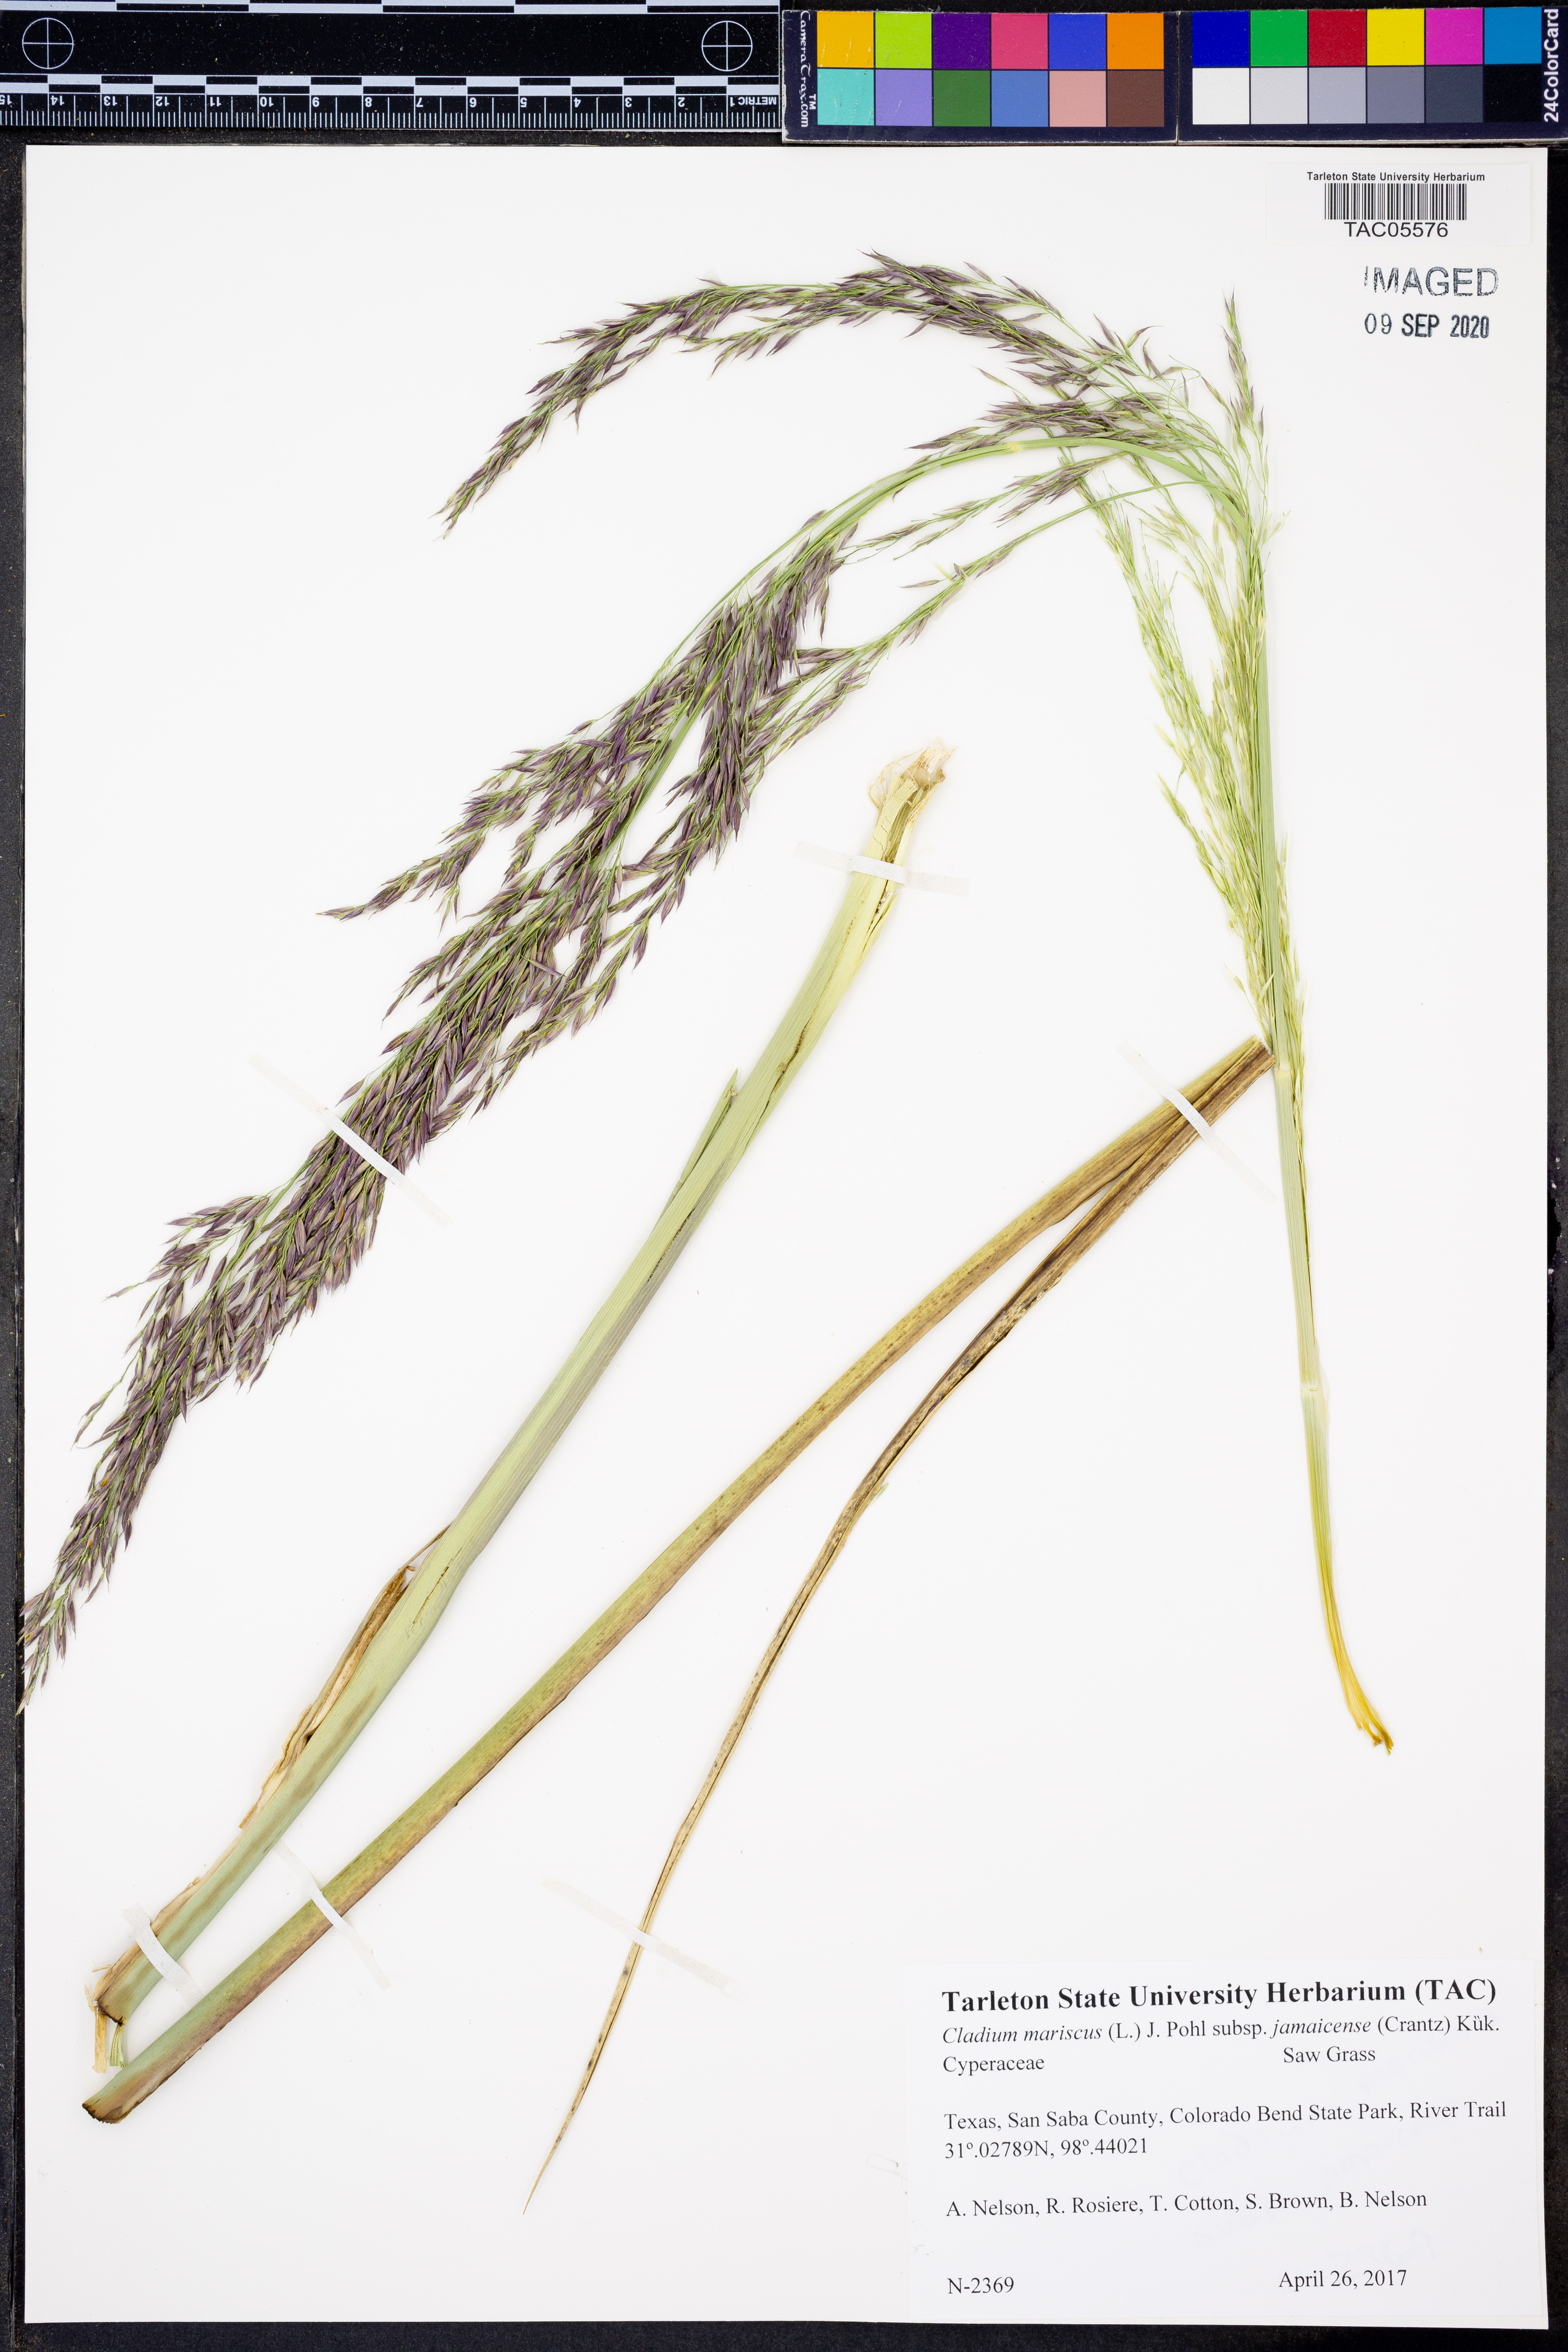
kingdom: Plantae
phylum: Tracheophyta
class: Liliopsida
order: Poales
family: Cyperaceae
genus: Cladium
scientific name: Cladium mariscus
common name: Great fen-sedge
